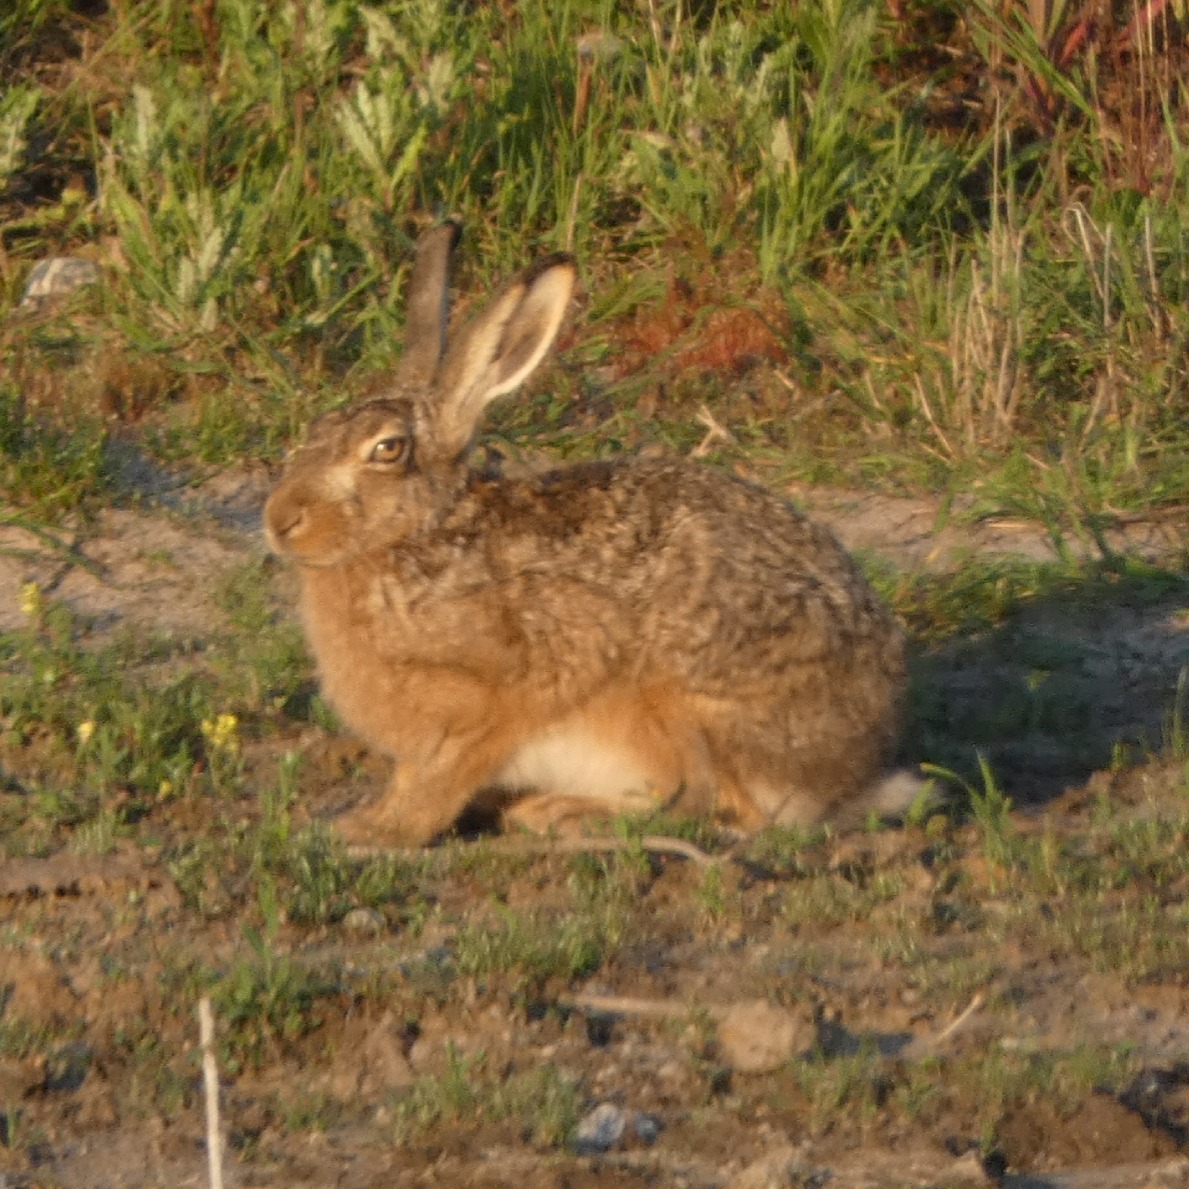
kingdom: Animalia
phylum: Chordata
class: Mammalia
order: Lagomorpha
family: Leporidae
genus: Lepus
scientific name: Lepus europaeus
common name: Hare
